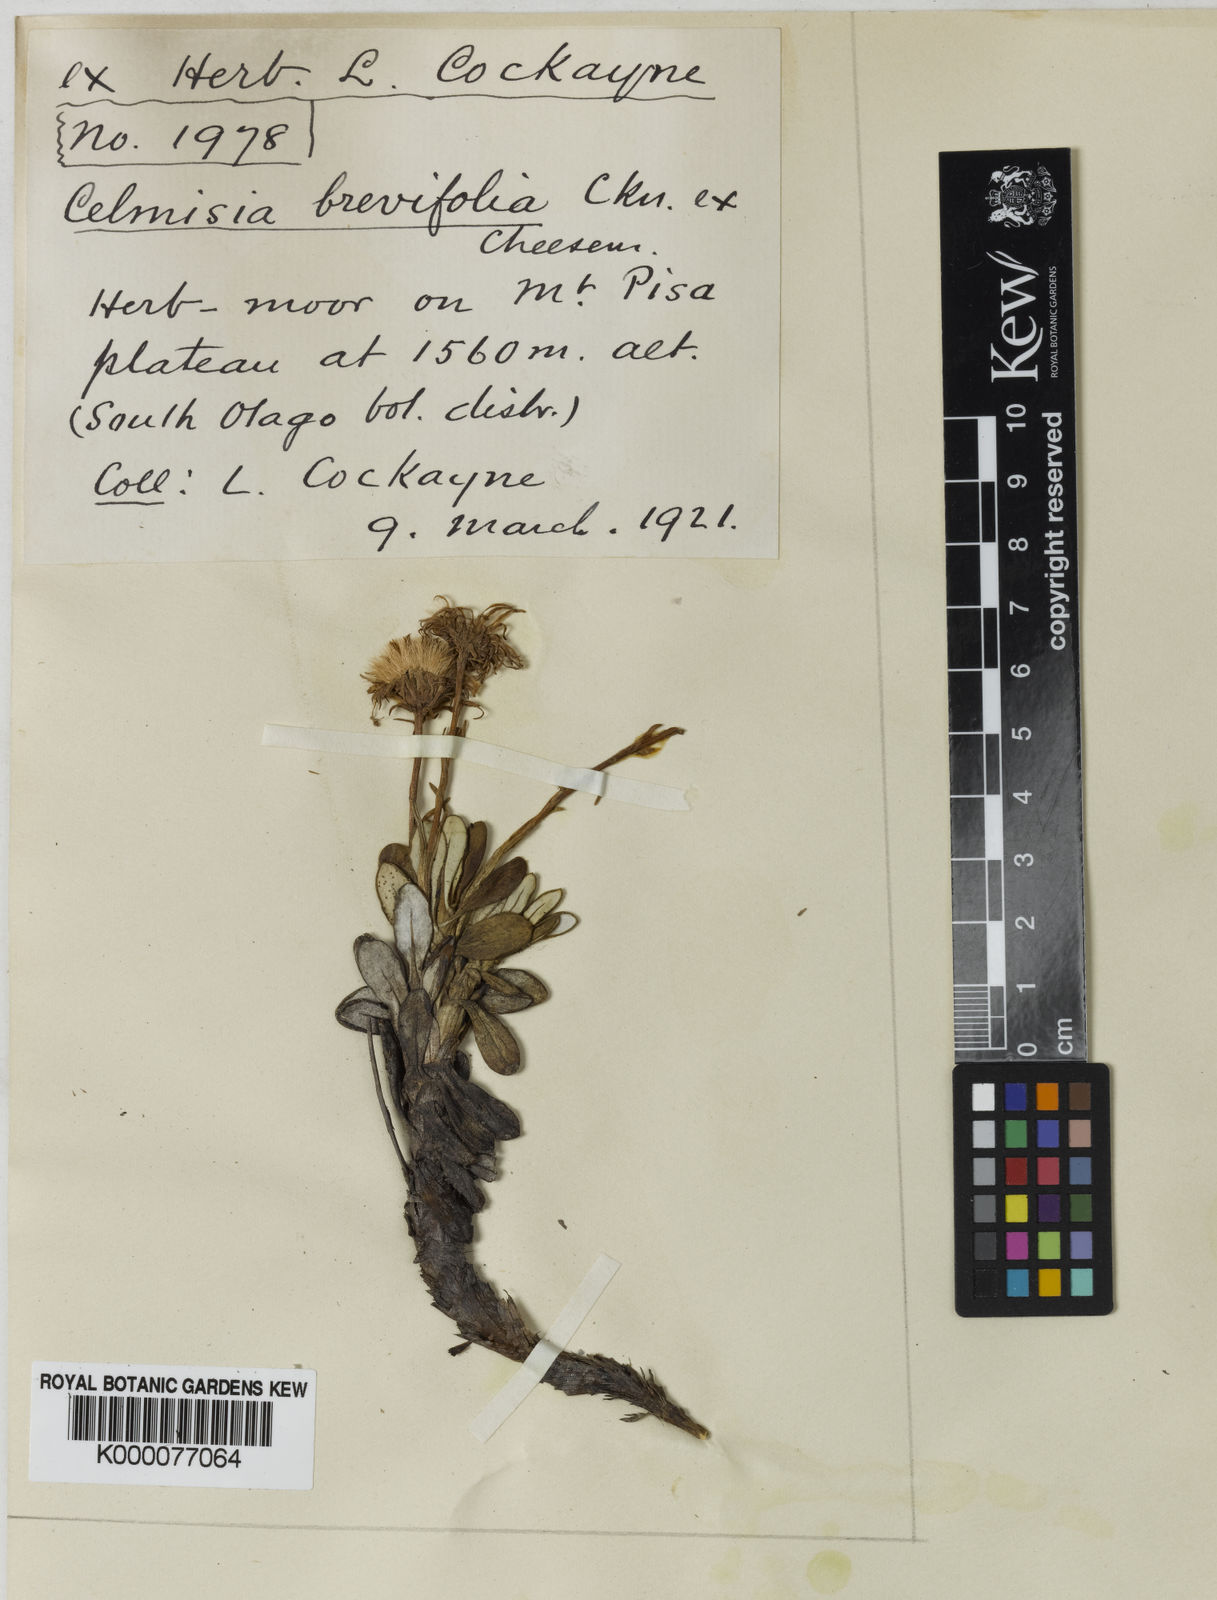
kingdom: Plantae
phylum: Tracheophyta
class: Magnoliopsida
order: Asterales
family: Asteraceae
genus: Celmisia
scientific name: Celmisia ramulosa
